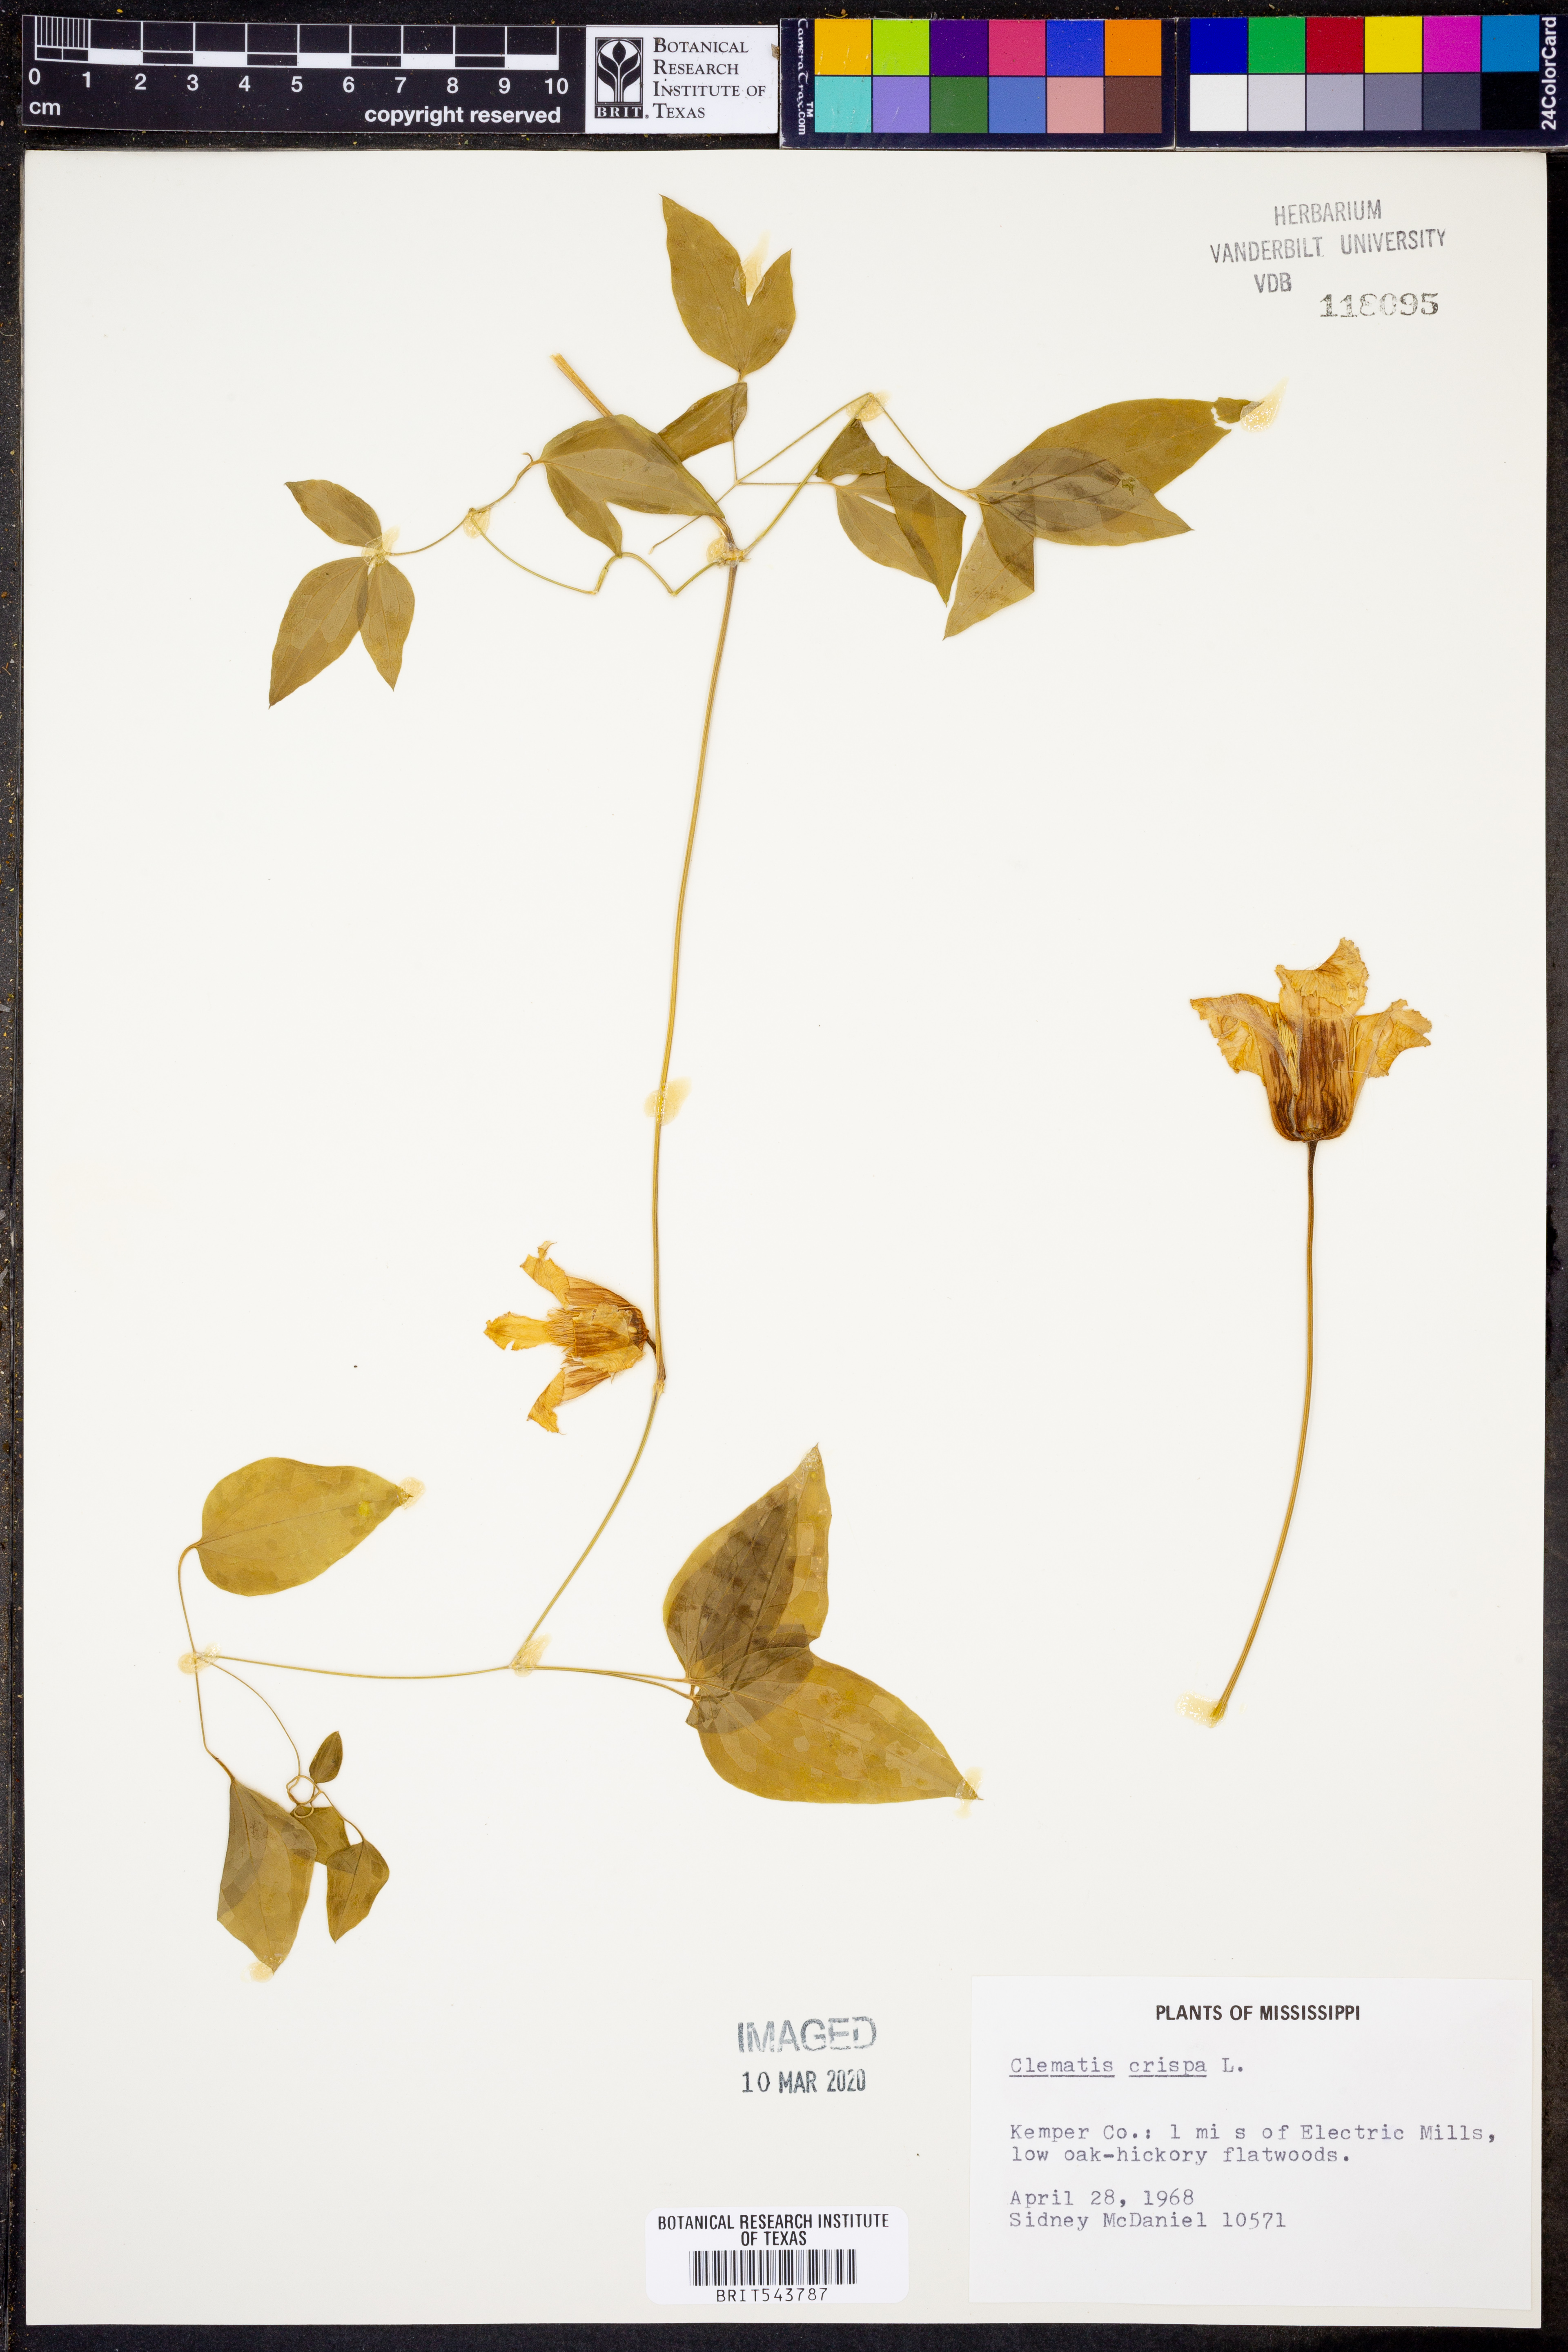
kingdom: Plantae
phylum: Tracheophyta
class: Magnoliopsida
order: Ranunculales
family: Ranunculaceae
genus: Clematis
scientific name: Clematis crispa
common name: Curly clematis
